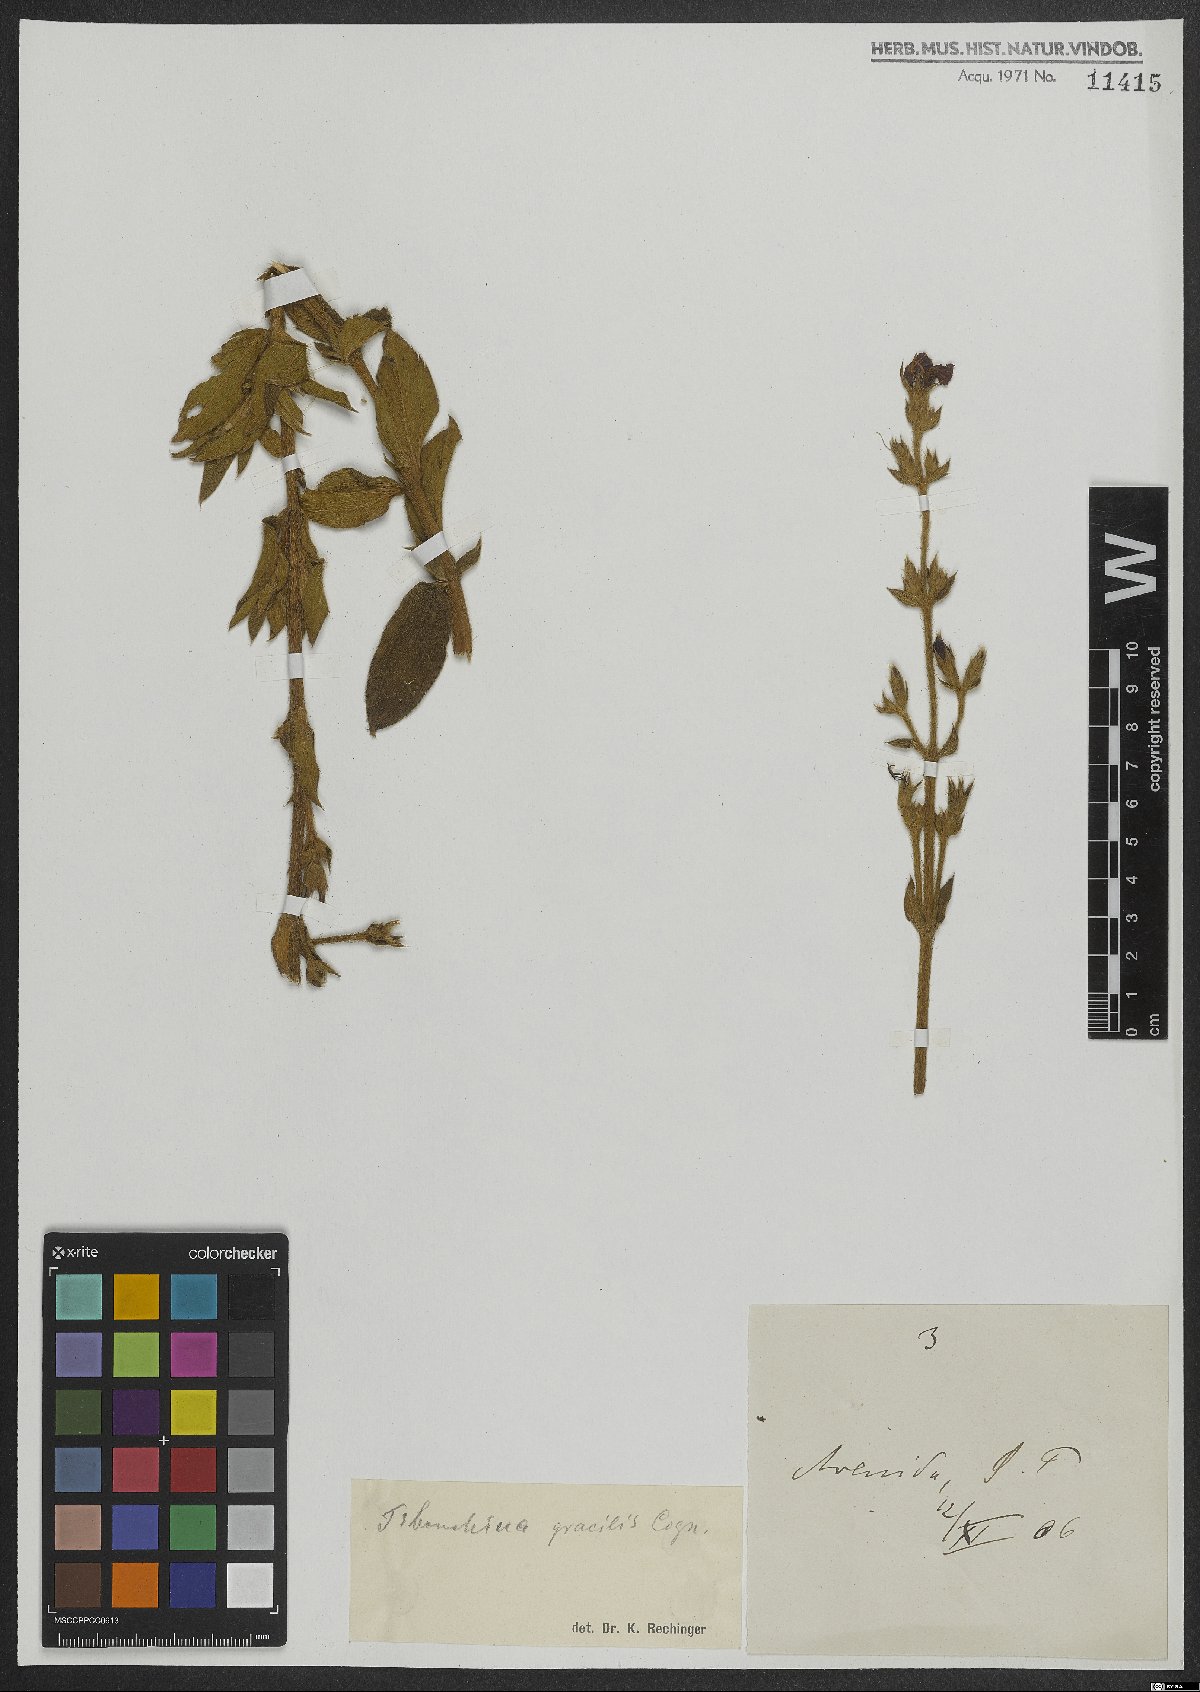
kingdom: Plantae
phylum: Tracheophyta
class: Magnoliopsida
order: Myrtales
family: Melastomataceae
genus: Chaetogastra
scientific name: Chaetogastra gracilis
